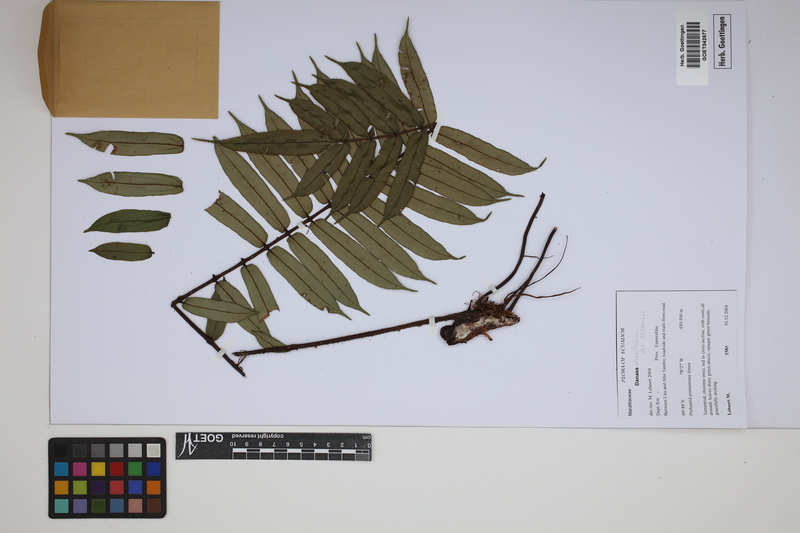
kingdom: Plantae
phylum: Tracheophyta
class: Polypodiopsida
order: Marattiales
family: Marattiaceae
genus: Danaea
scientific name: Danaea moritziana
